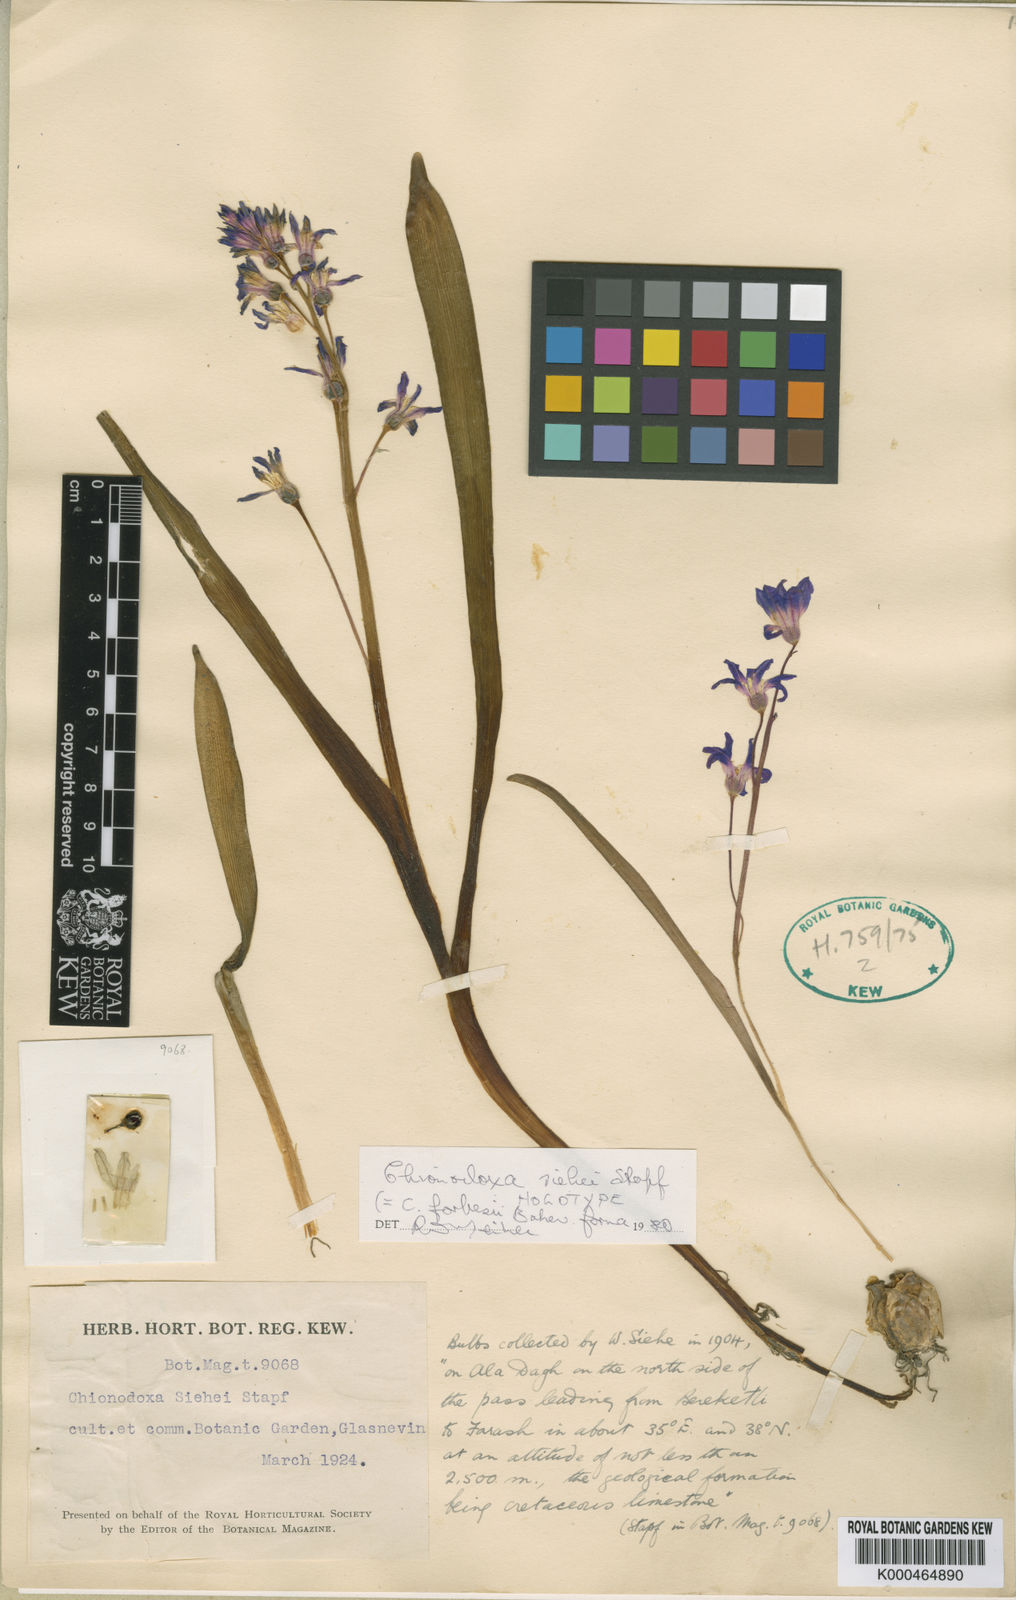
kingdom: Plantae
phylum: Tracheophyta
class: Liliopsida
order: Asparagales
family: Asparagaceae
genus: Scilla
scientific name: Scilla forbesii
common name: Glory-of-the-snow
